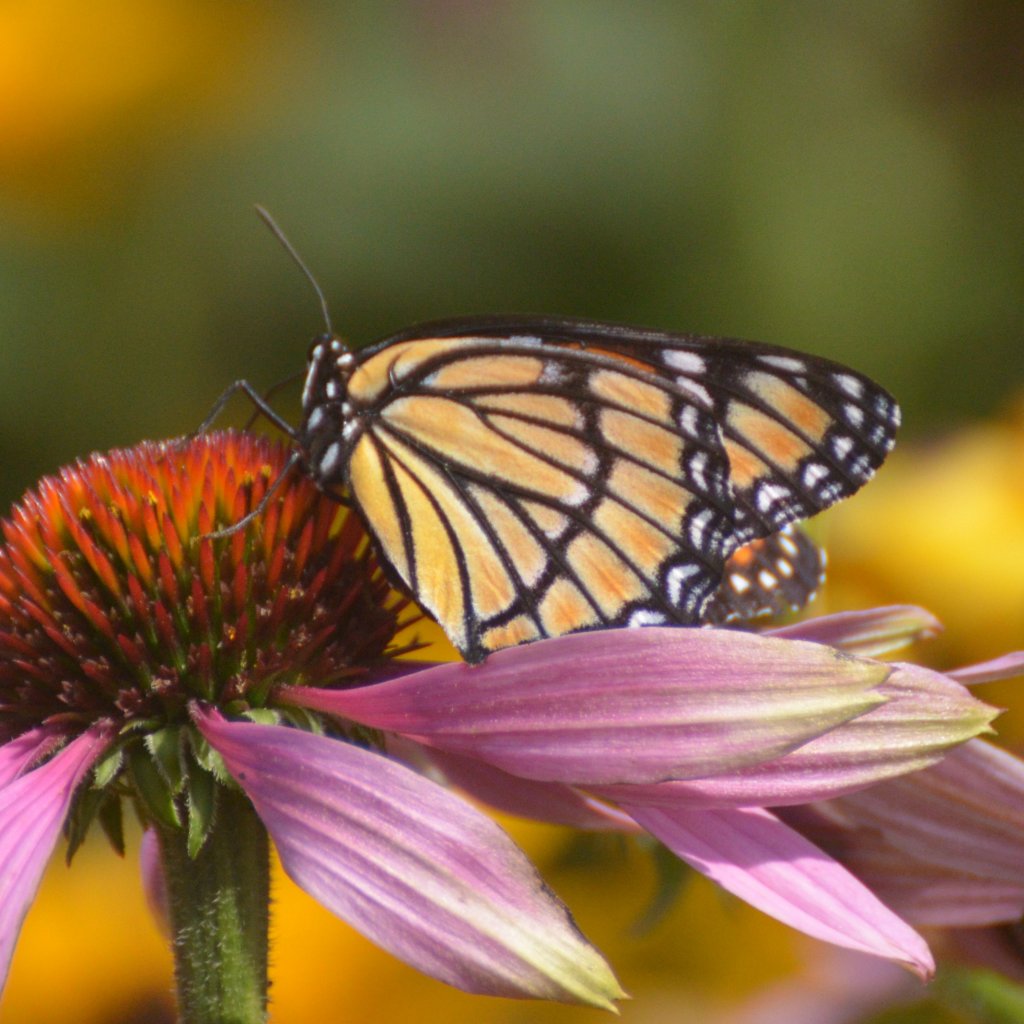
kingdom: Animalia
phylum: Arthropoda
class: Insecta
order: Lepidoptera
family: Nymphalidae
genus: Limenitis
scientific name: Limenitis archippus
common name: Viceroy
